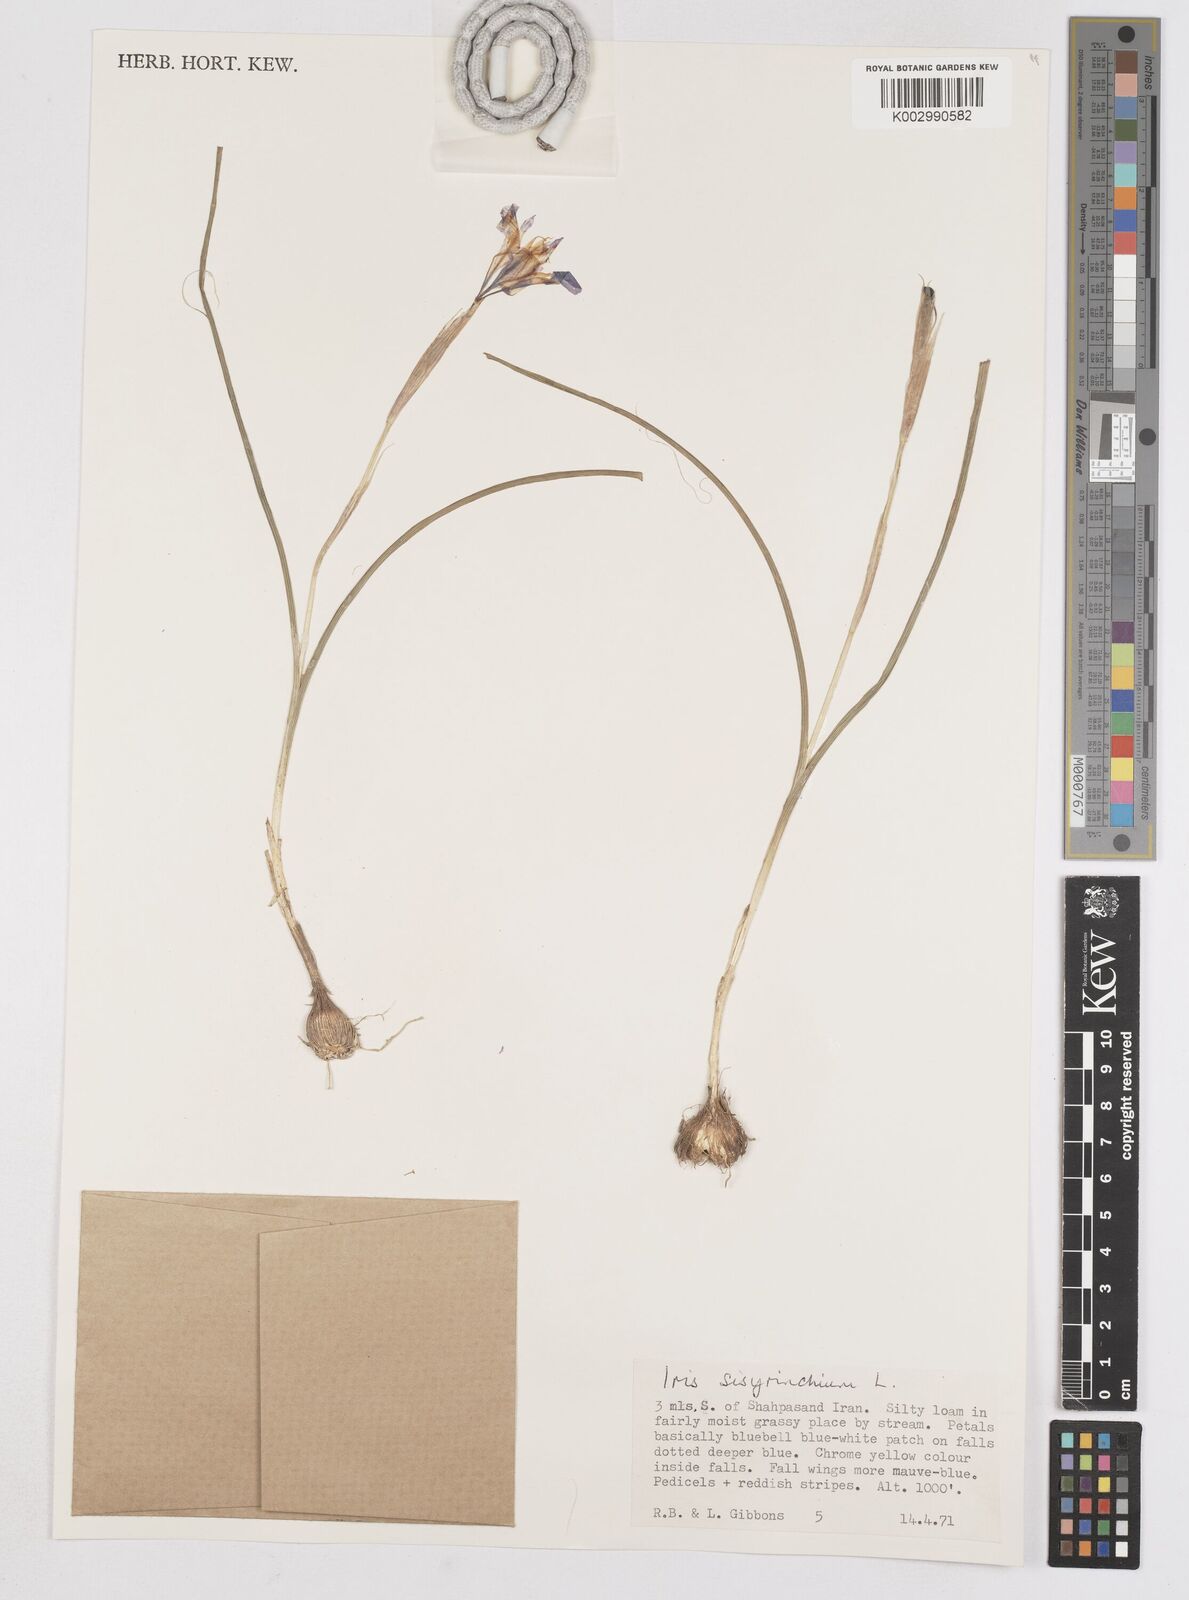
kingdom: Plantae
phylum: Tracheophyta
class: Liliopsida
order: Asparagales
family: Iridaceae
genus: Moraea
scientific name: Moraea sisyrinchium
